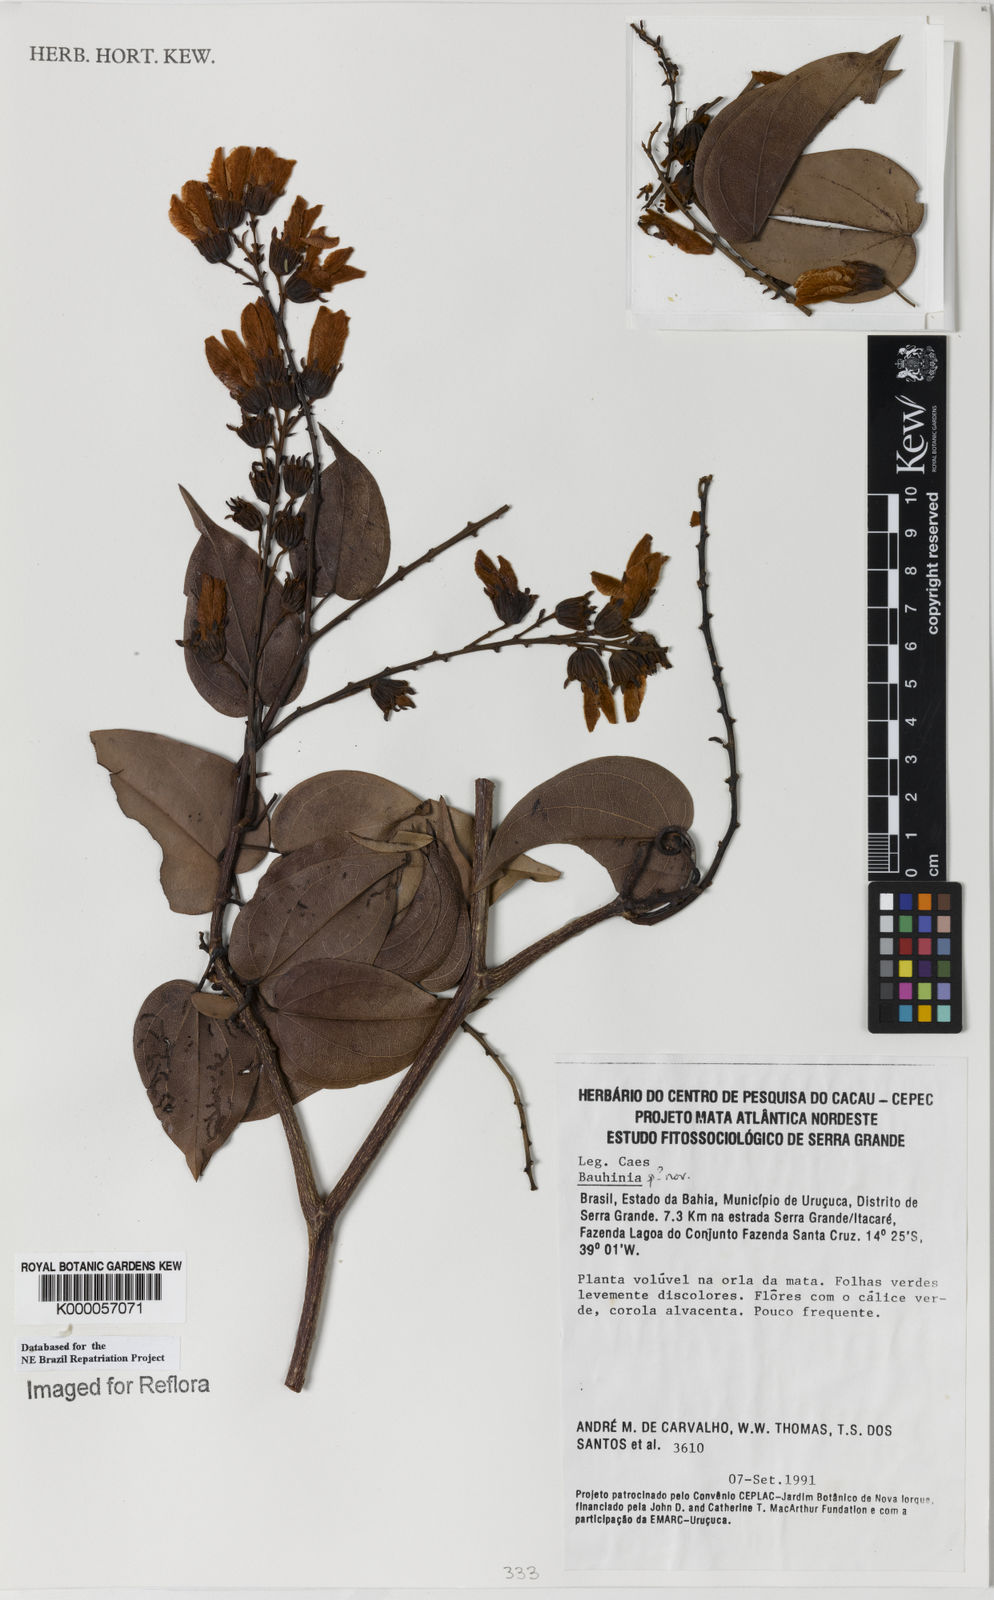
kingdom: Plantae
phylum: Tracheophyta
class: Magnoliopsida
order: Fabales
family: Fabaceae
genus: Bauhinia
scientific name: Bauhinia
